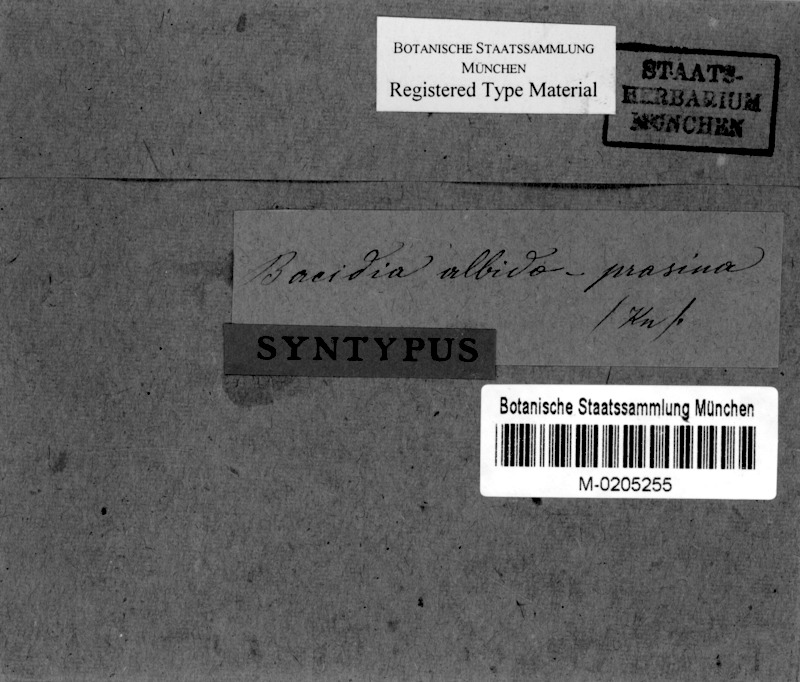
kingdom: Fungi
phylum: Ascomycota
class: Lecanoromycetes
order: Lecanorales
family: Ramalinaceae
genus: Bacidia
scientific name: Bacidia
